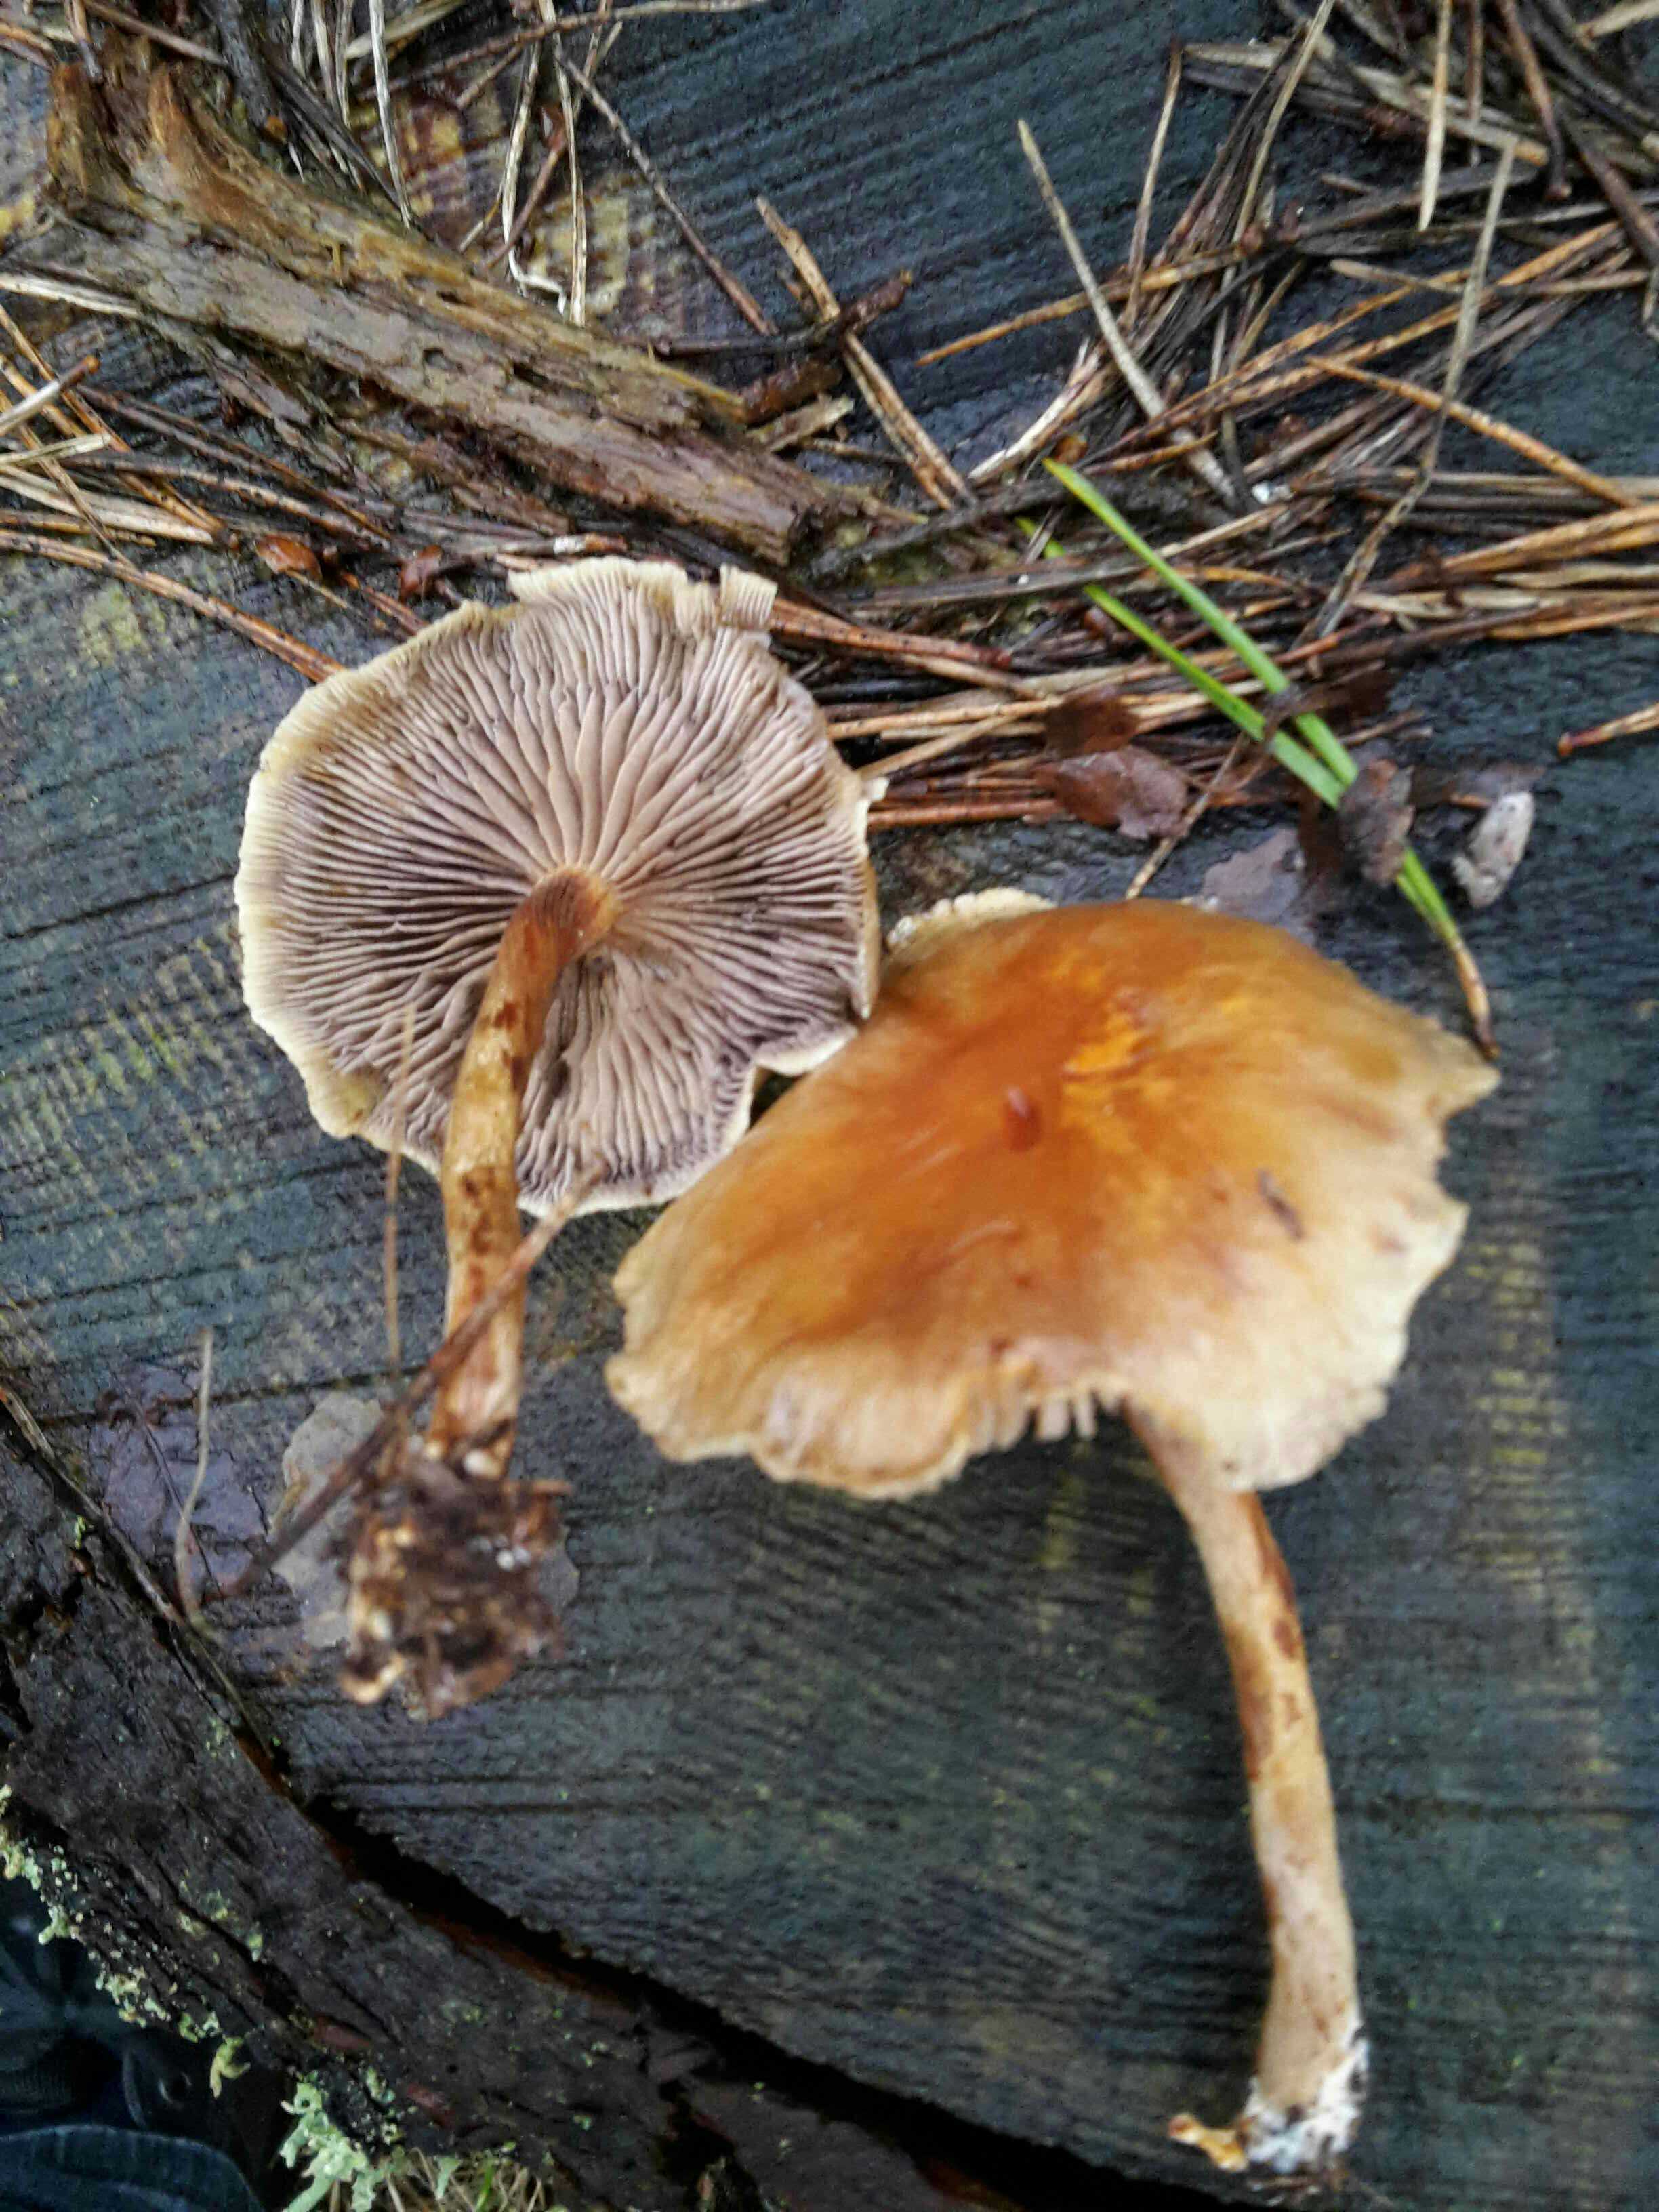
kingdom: Fungi
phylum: Basidiomycota
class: Agaricomycetes
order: Agaricales
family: Strophariaceae
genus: Hypholoma
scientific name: Hypholoma capnoides
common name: gran-svovlhat
